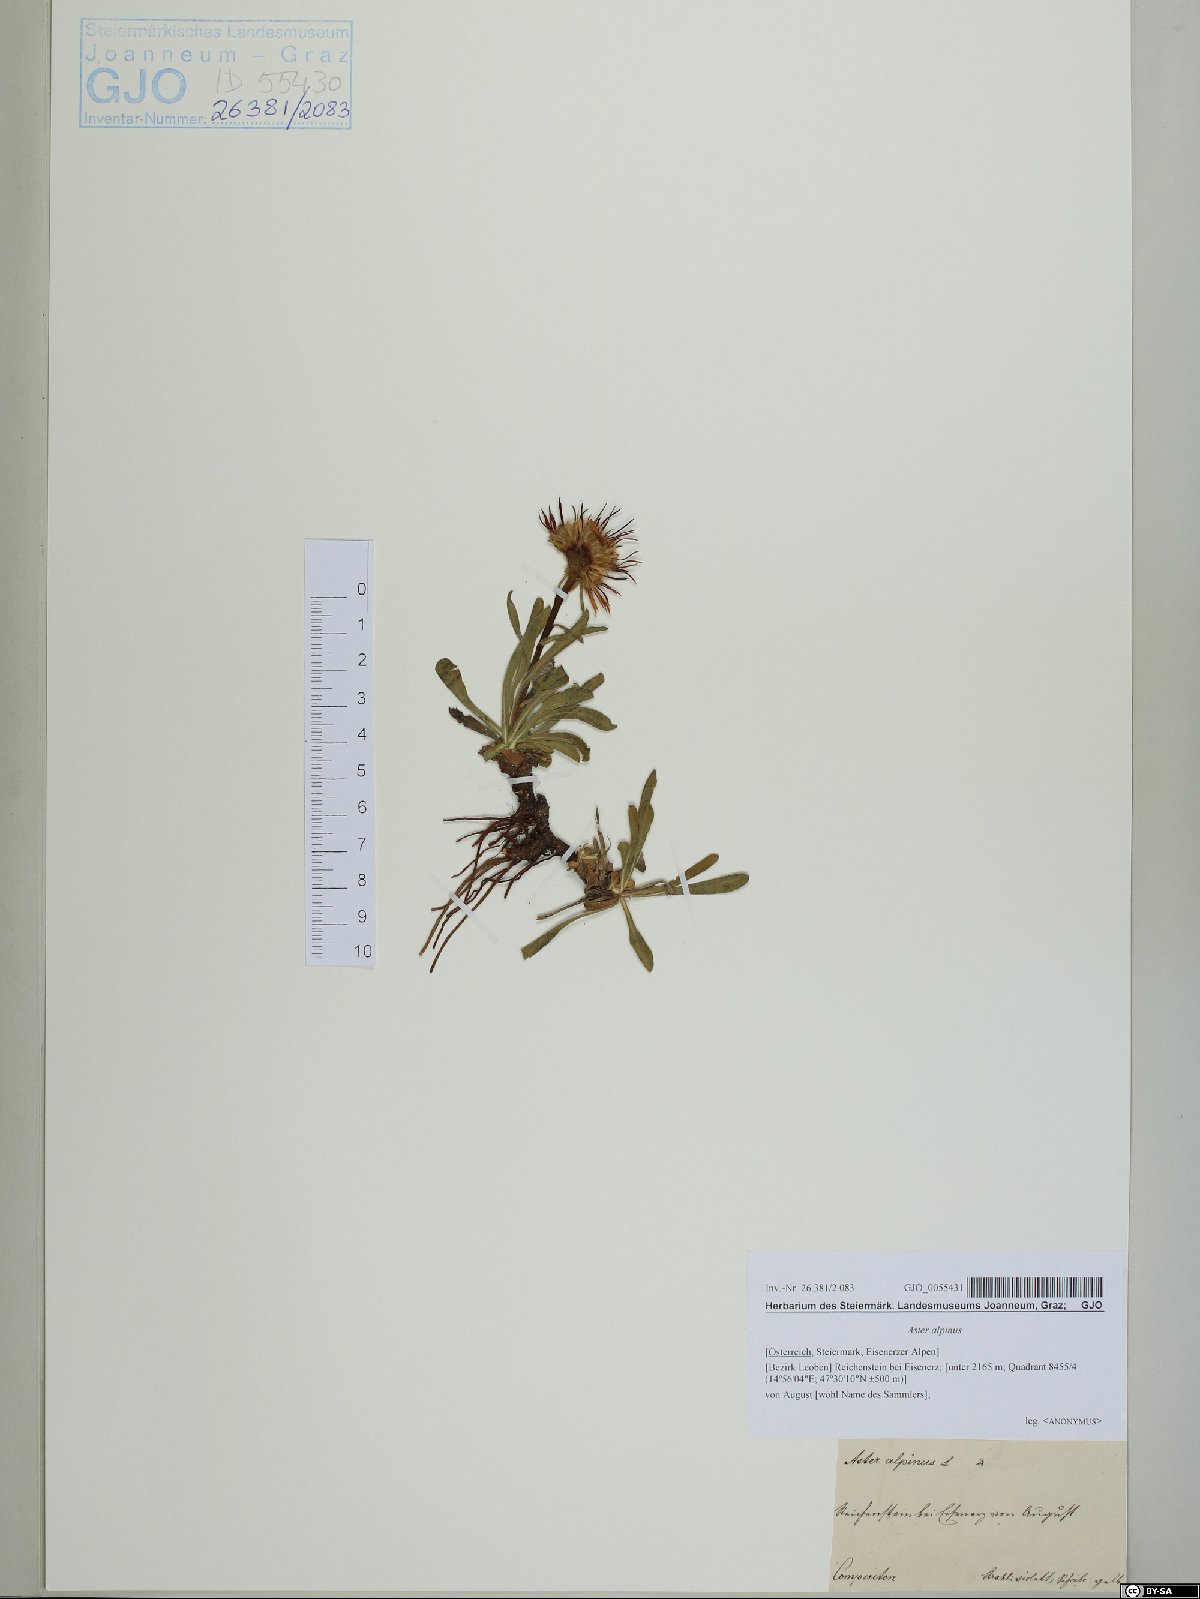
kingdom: Plantae
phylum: Tracheophyta
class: Magnoliopsida
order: Asterales
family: Asteraceae
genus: Aster
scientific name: Aster alpinus
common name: Alpine aster
